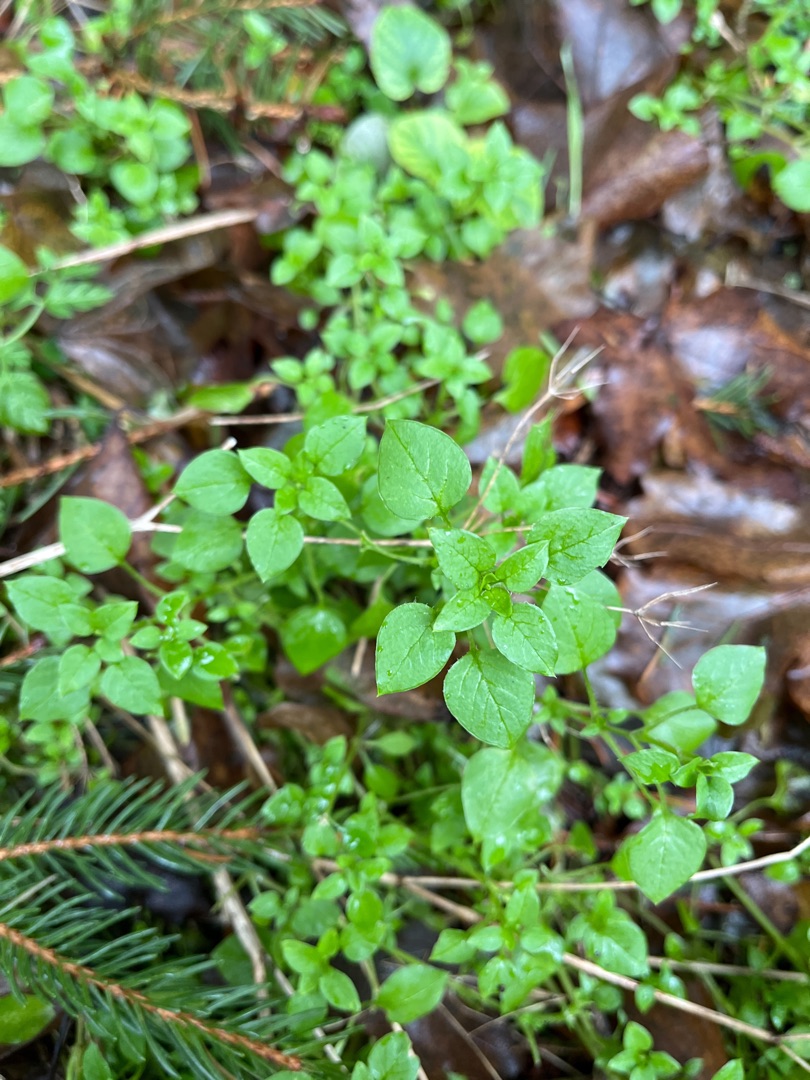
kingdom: Plantae
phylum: Tracheophyta
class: Magnoliopsida
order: Caryophyllales
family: Caryophyllaceae
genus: Stellaria
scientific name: Stellaria media
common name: Almindelig fuglegræs
